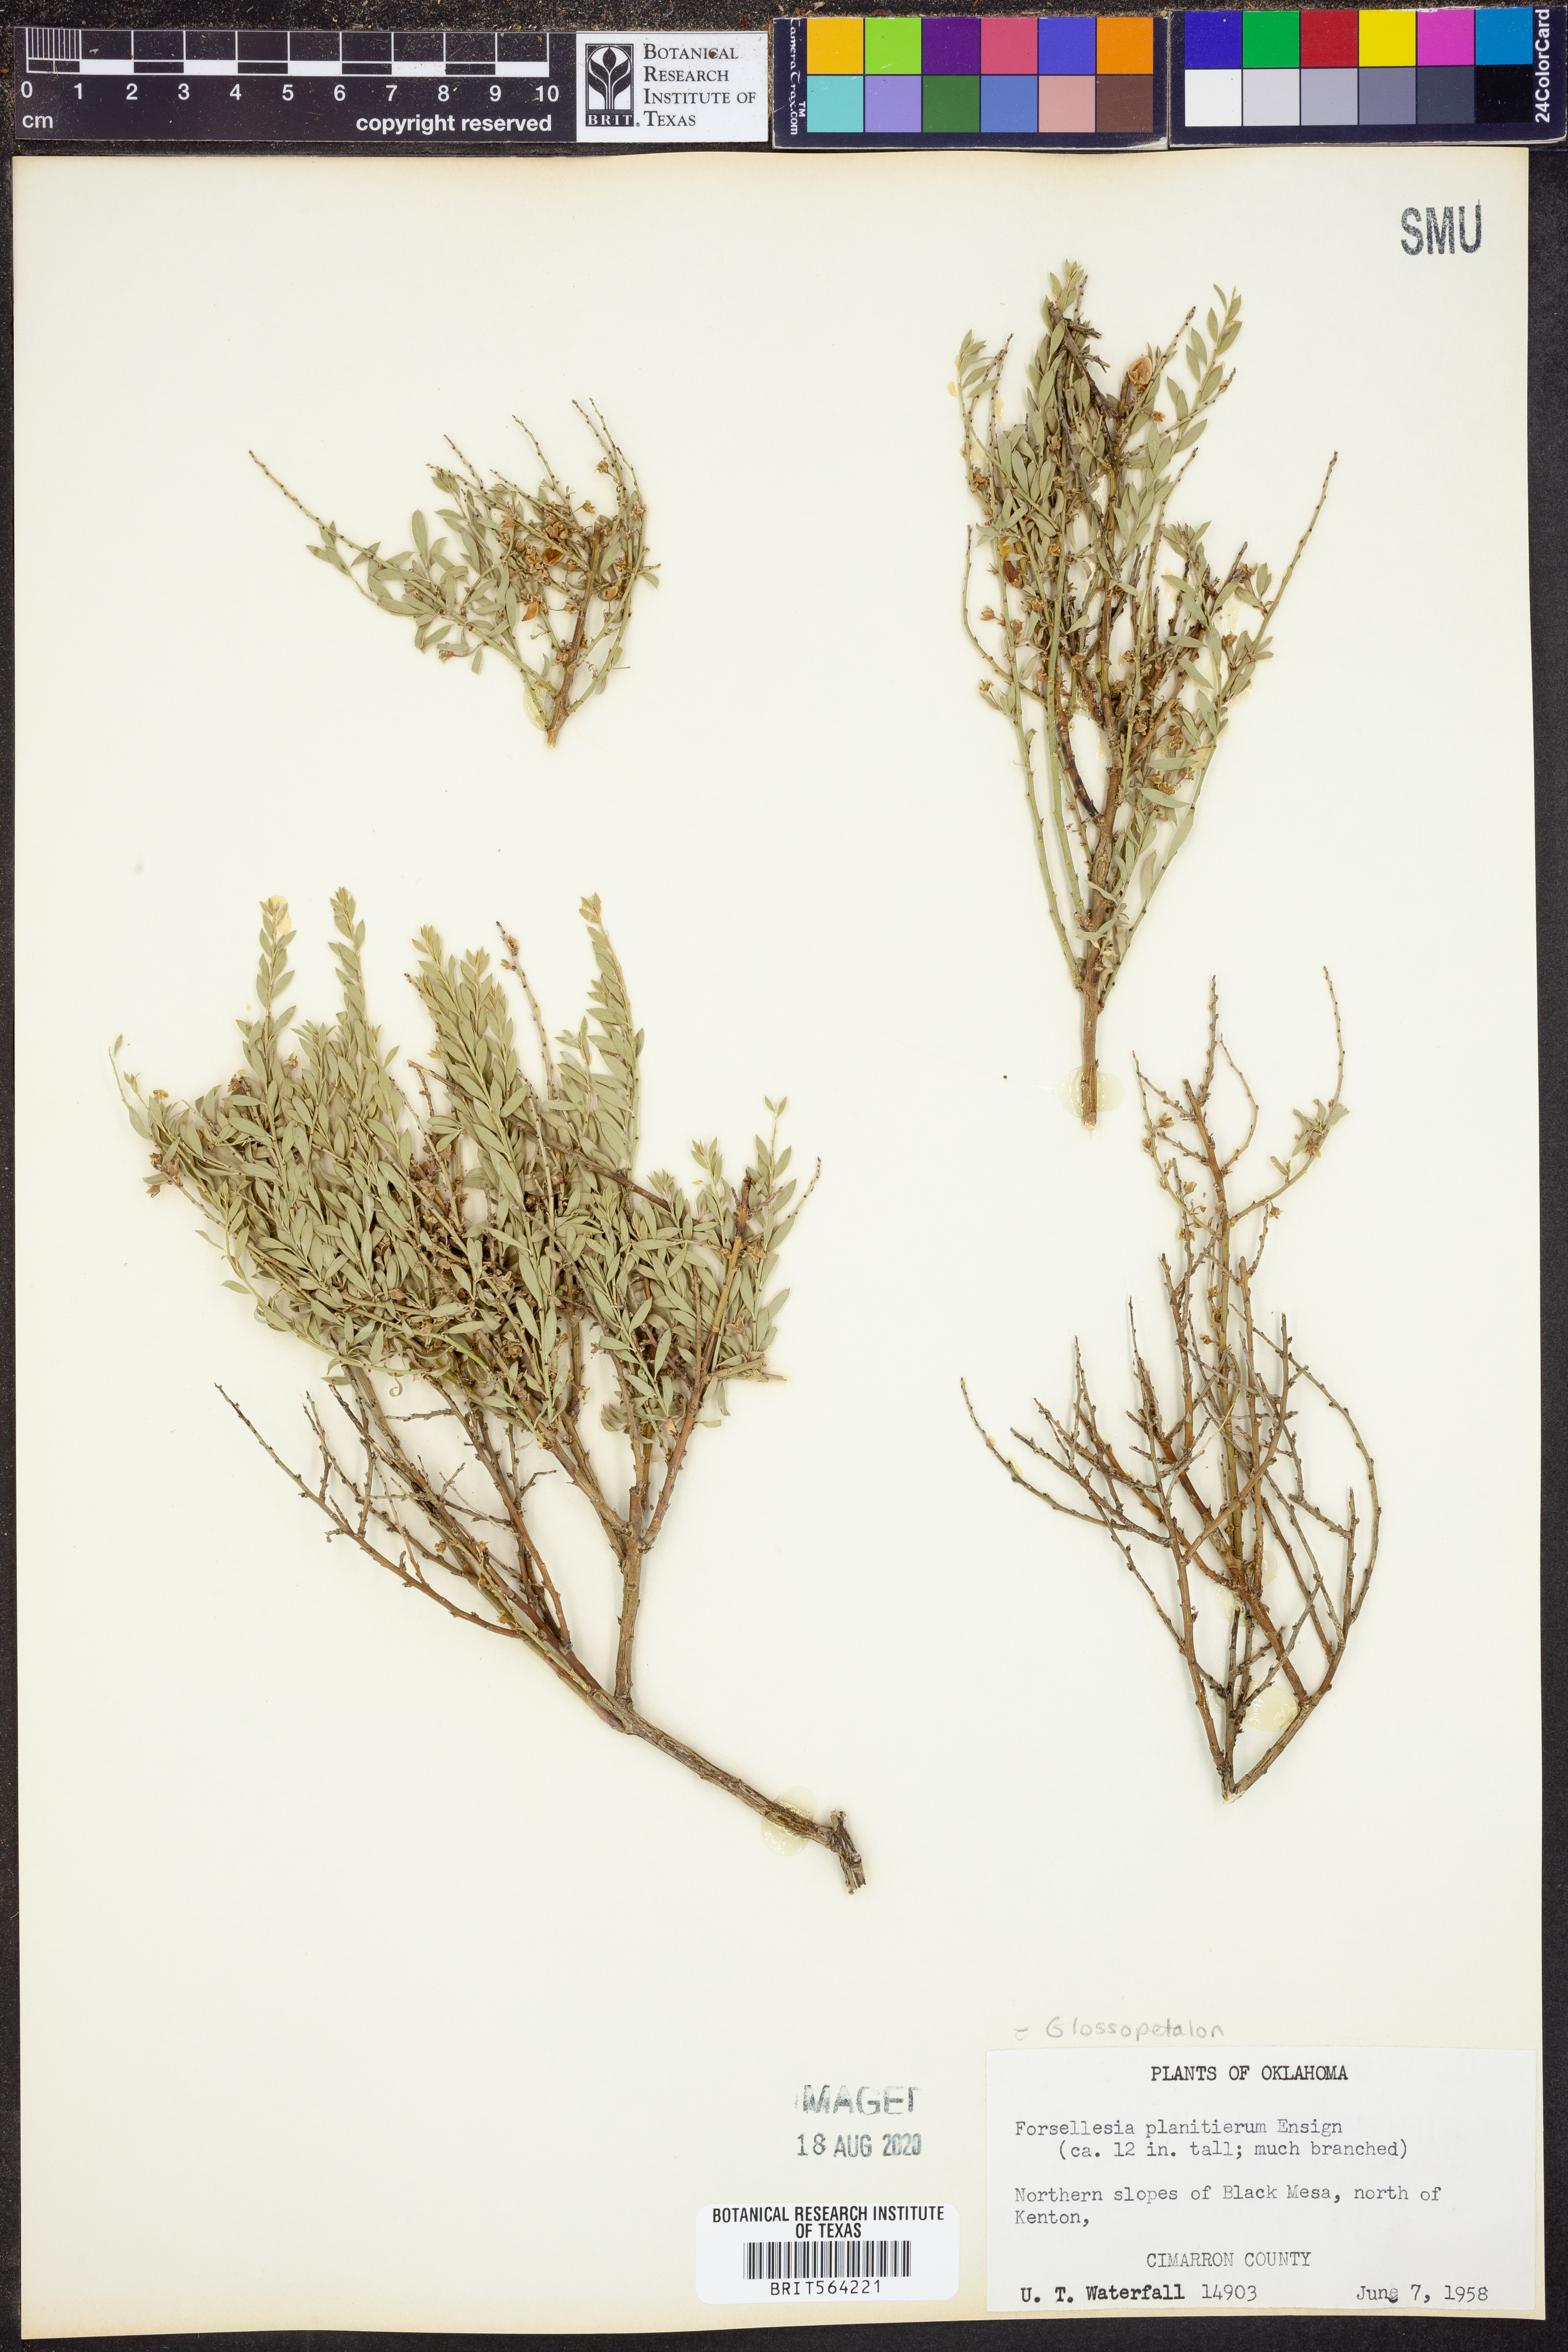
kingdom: Plantae
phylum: Tracheophyta
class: Magnoliopsida
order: Crossosomatales
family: Crossosomataceae
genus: Glossopetalon
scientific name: Glossopetalon spinescens
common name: Spring greasebush
